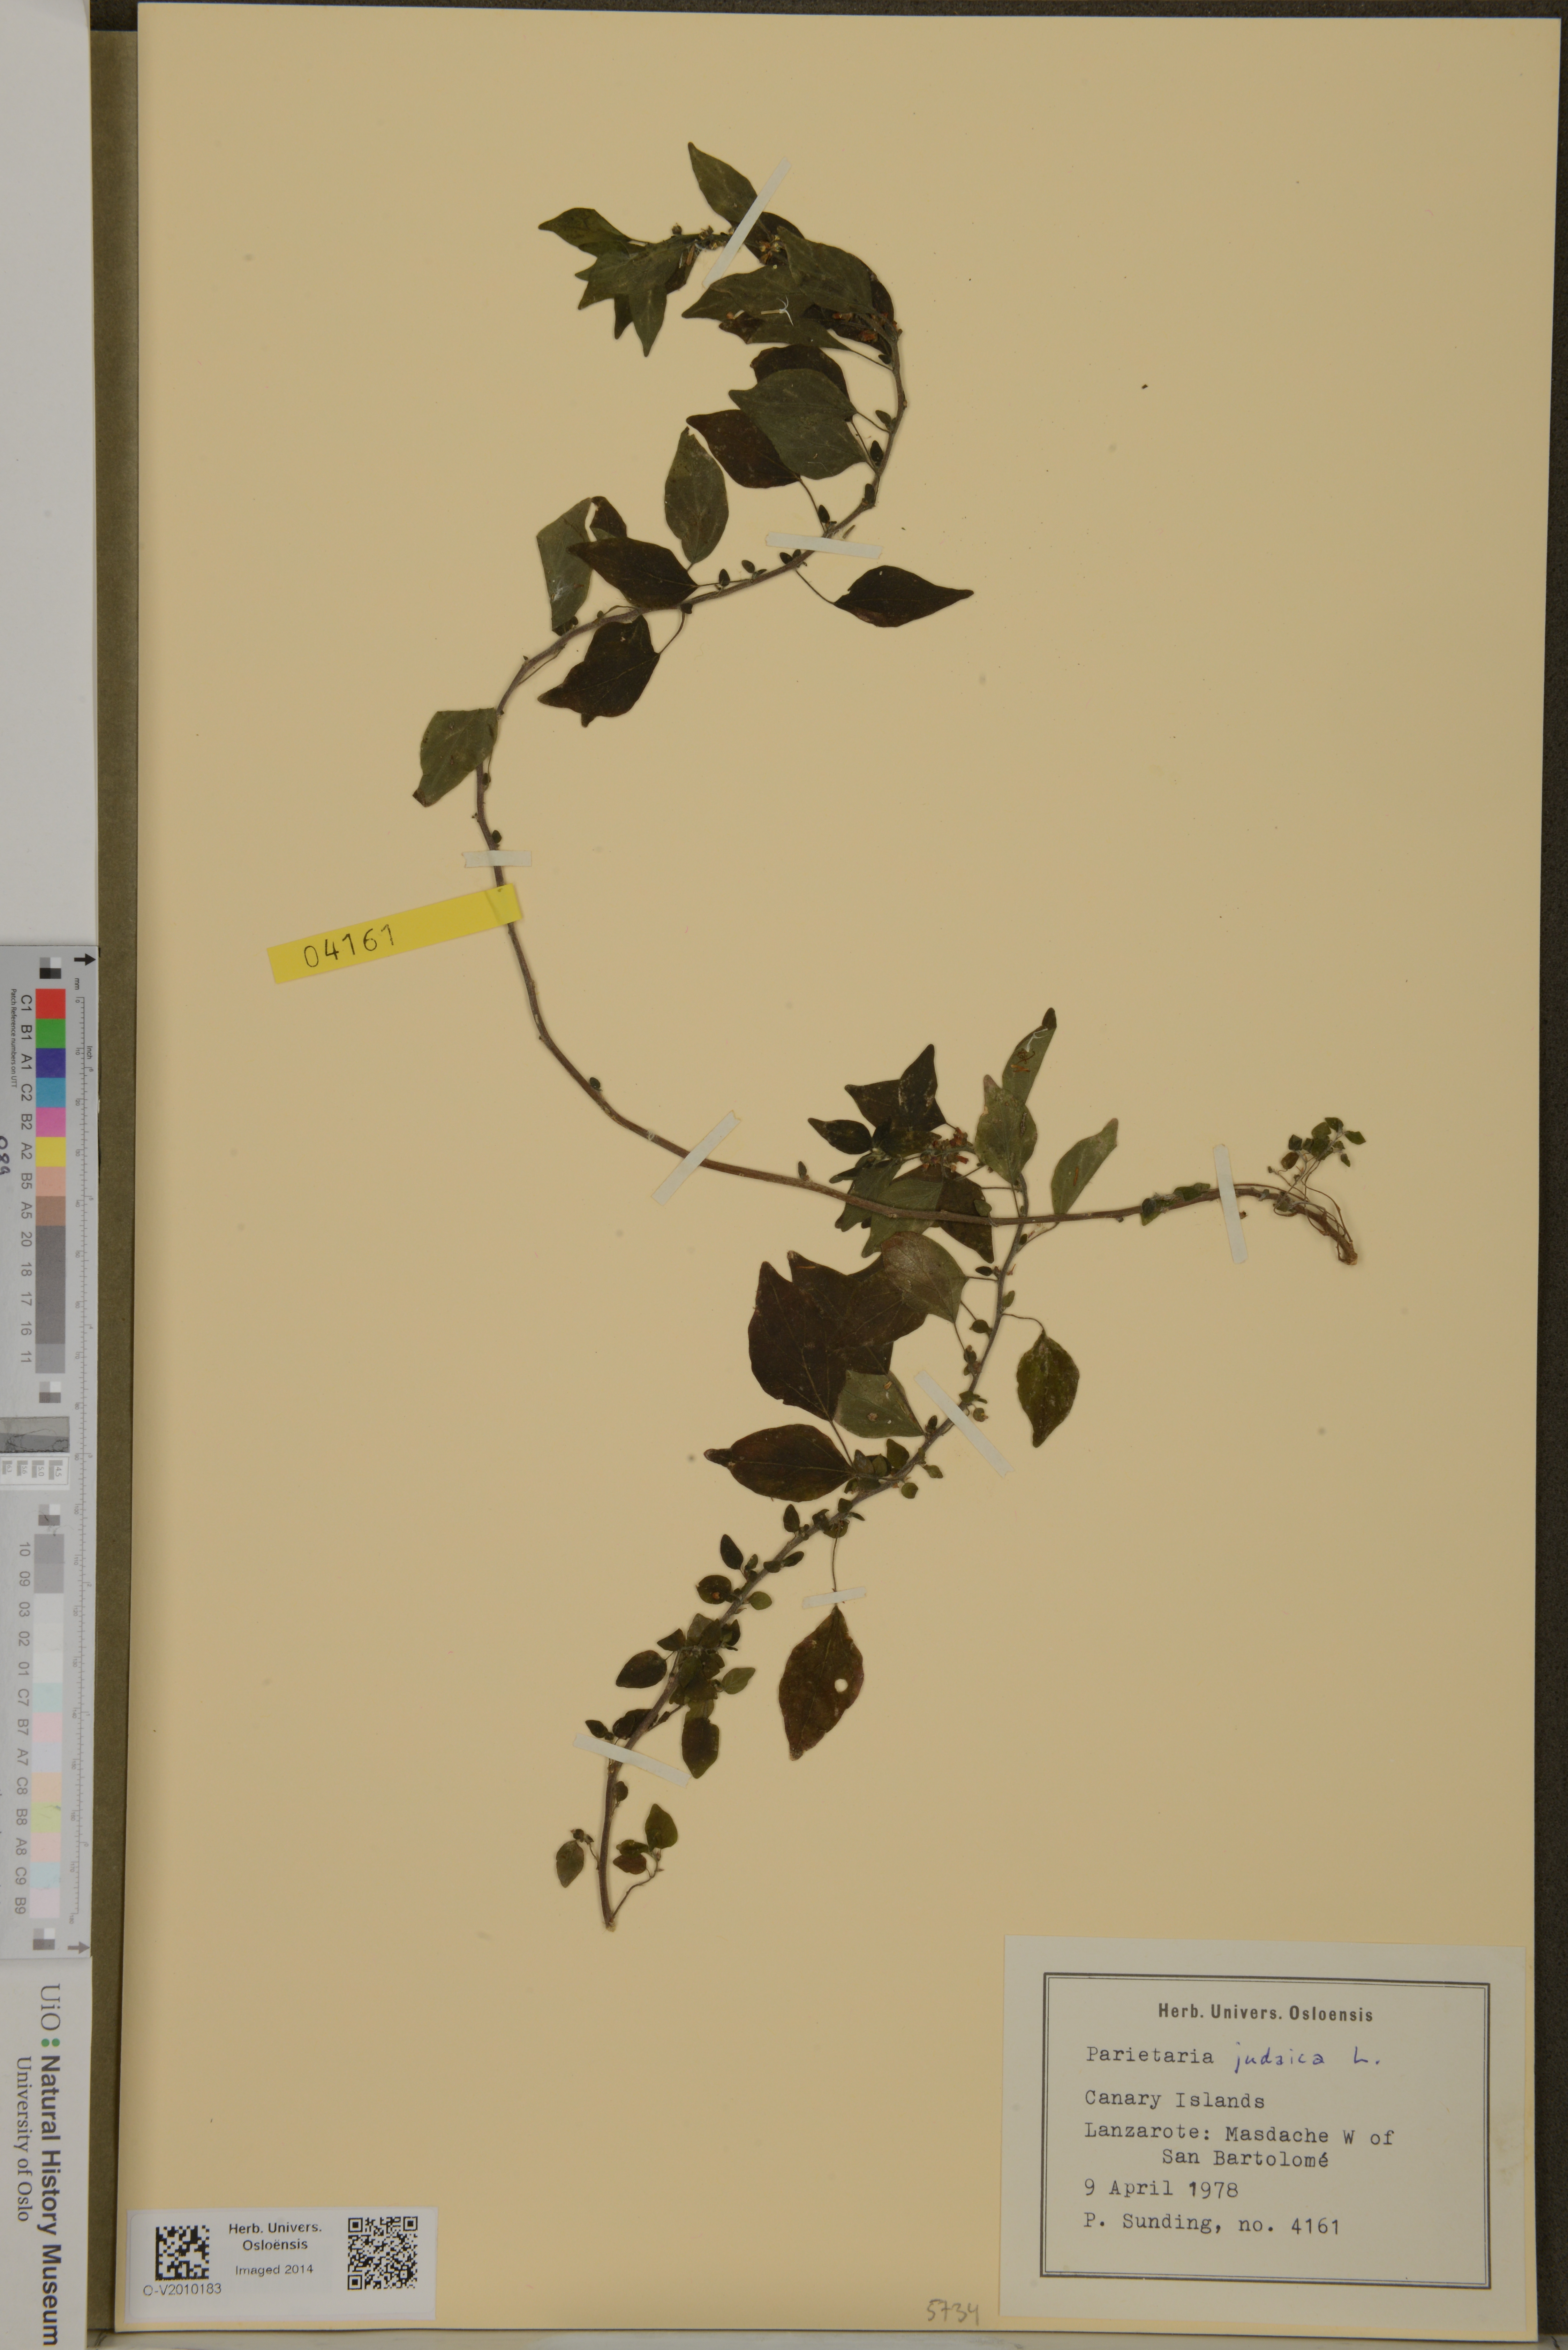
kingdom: Plantae
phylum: Tracheophyta
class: Magnoliopsida
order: Rosales
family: Urticaceae
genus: Parietaria
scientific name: Parietaria judaica
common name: Pellitory-of-the-wall
